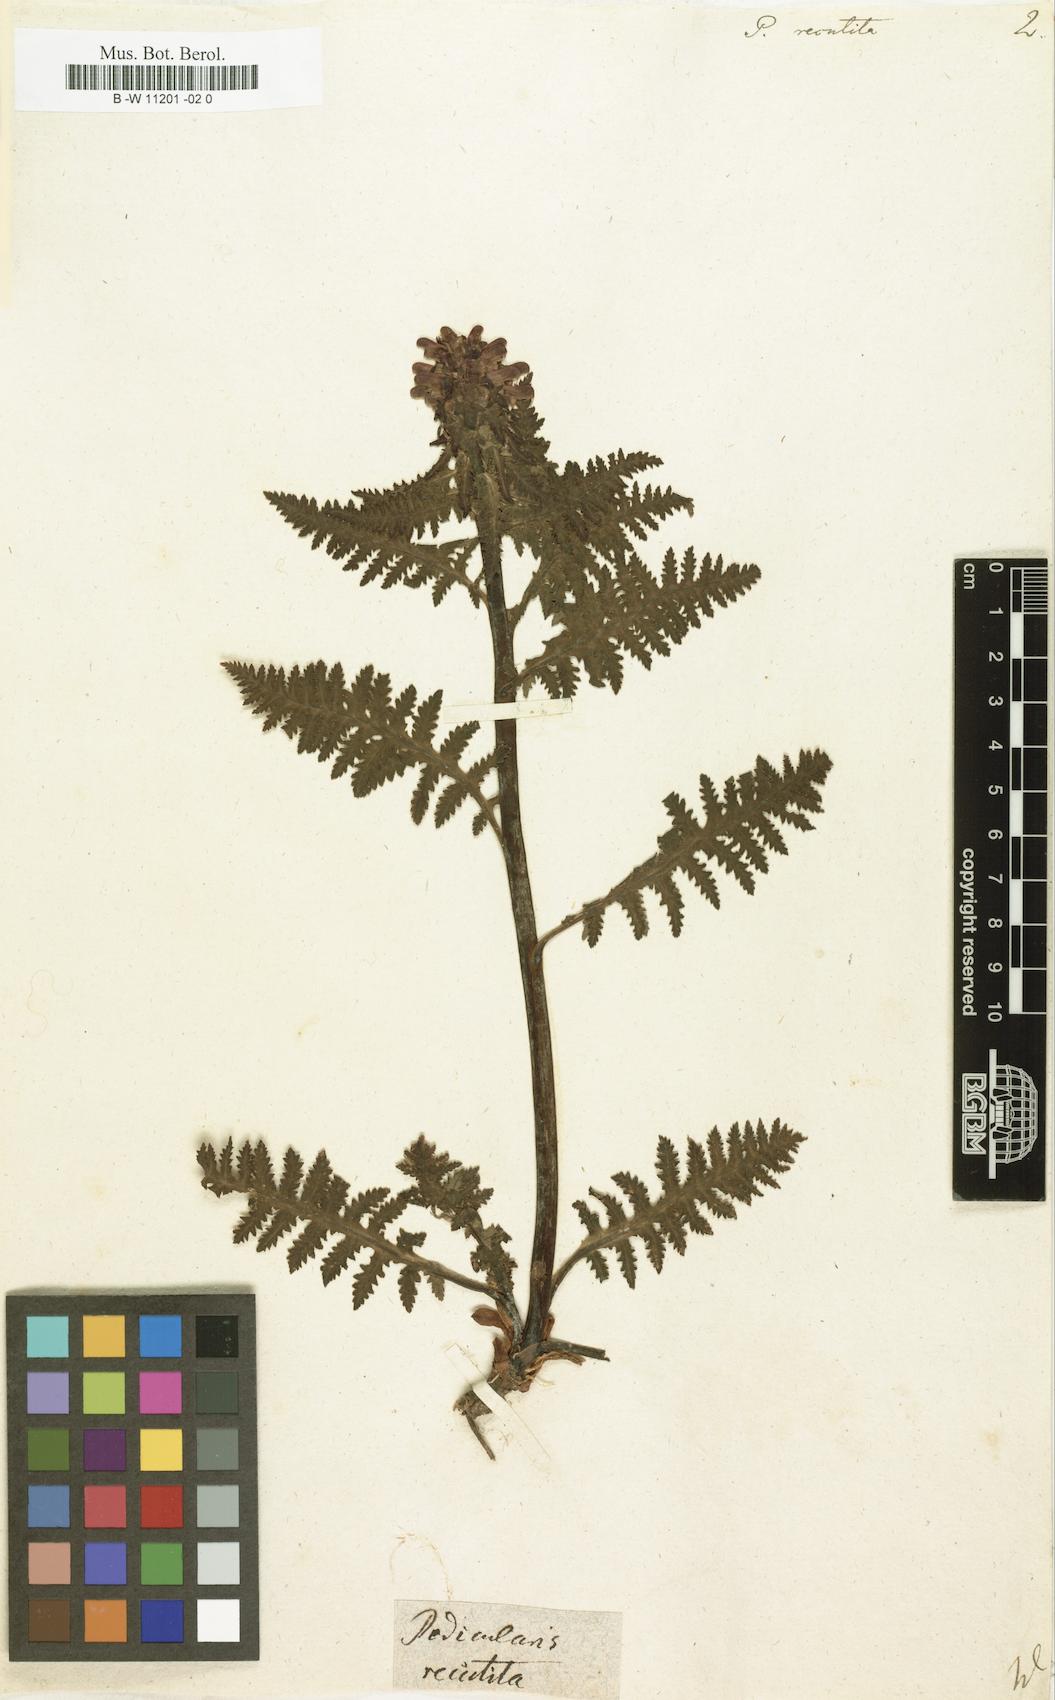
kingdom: Plantae
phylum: Tracheophyta
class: Magnoliopsida
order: Lamiales
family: Orobanchaceae
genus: Pedicularis
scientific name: Pedicularis recutita
